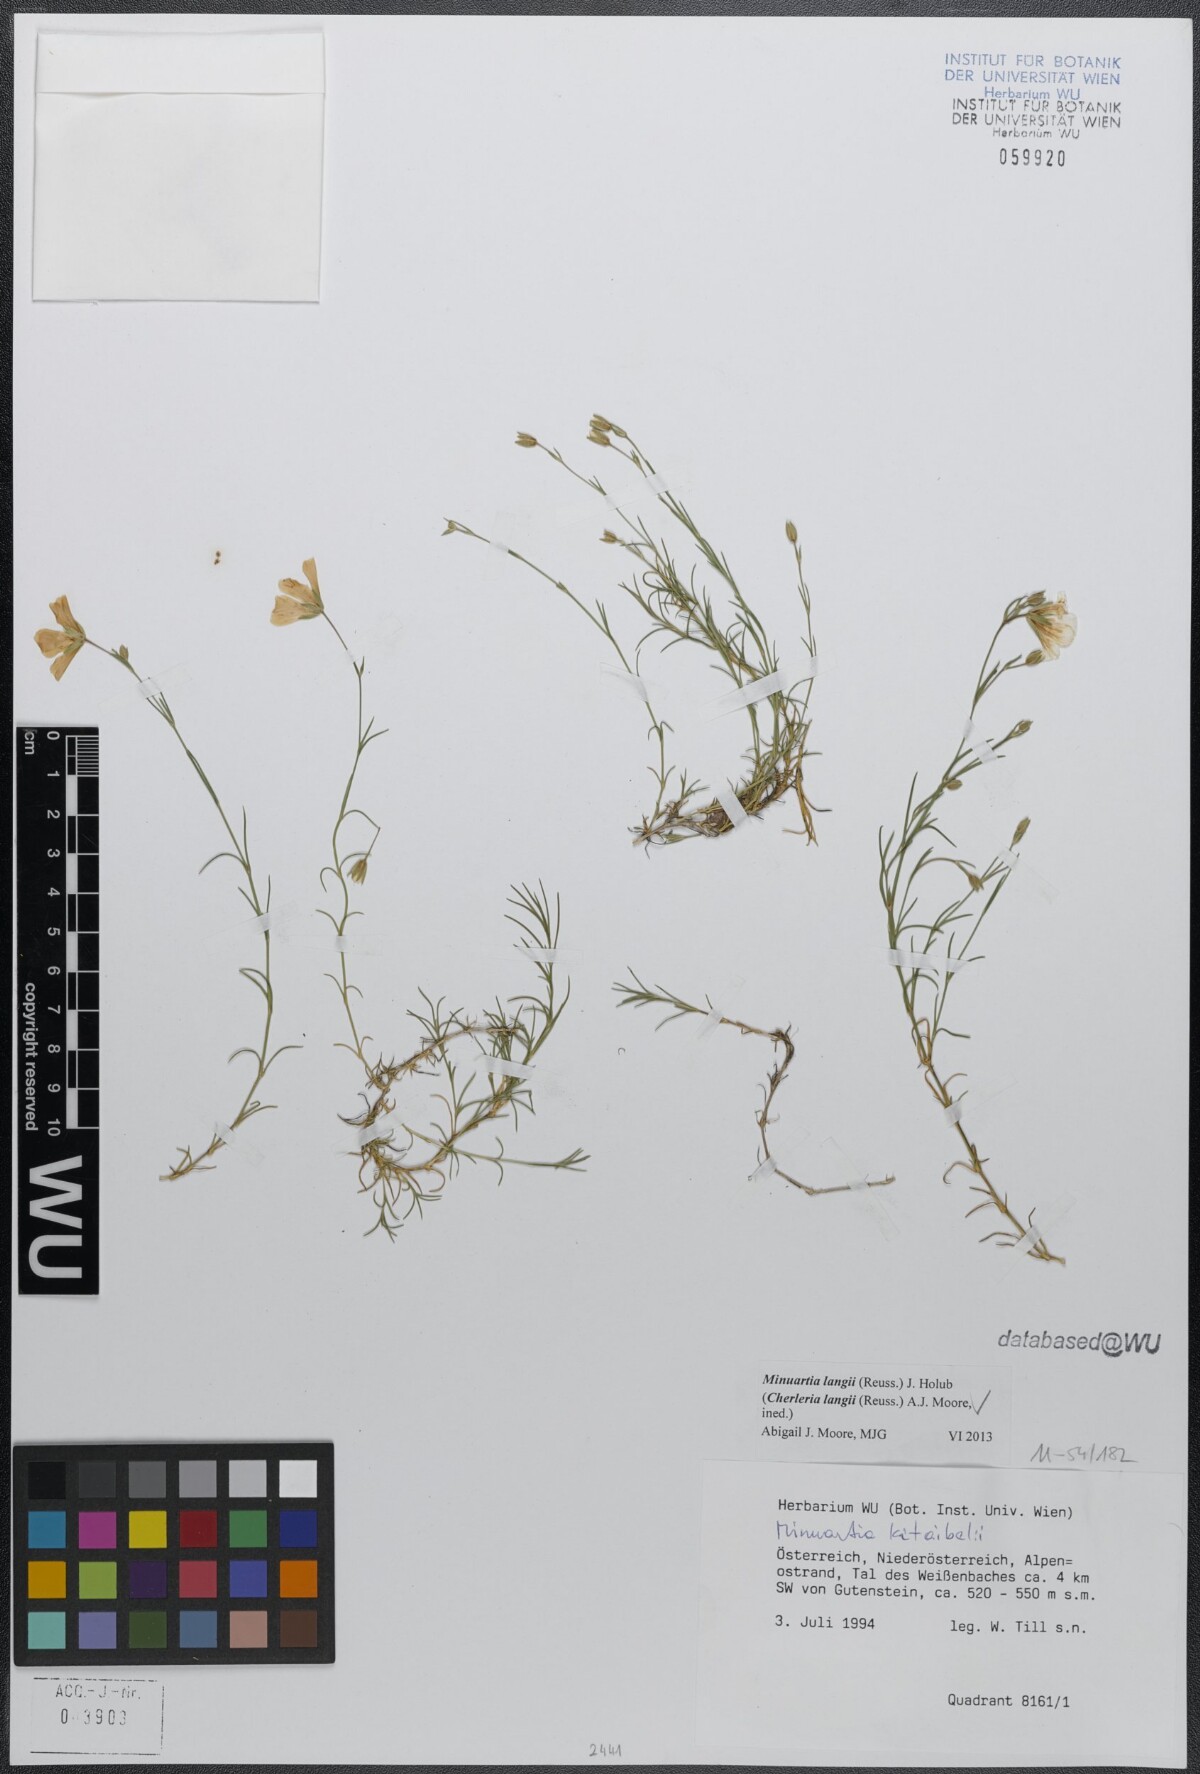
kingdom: Plantae
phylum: Tracheophyta
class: Magnoliopsida
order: Caryophyllales
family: Caryophyllaceae
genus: Cherleria
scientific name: Cherleria langii
